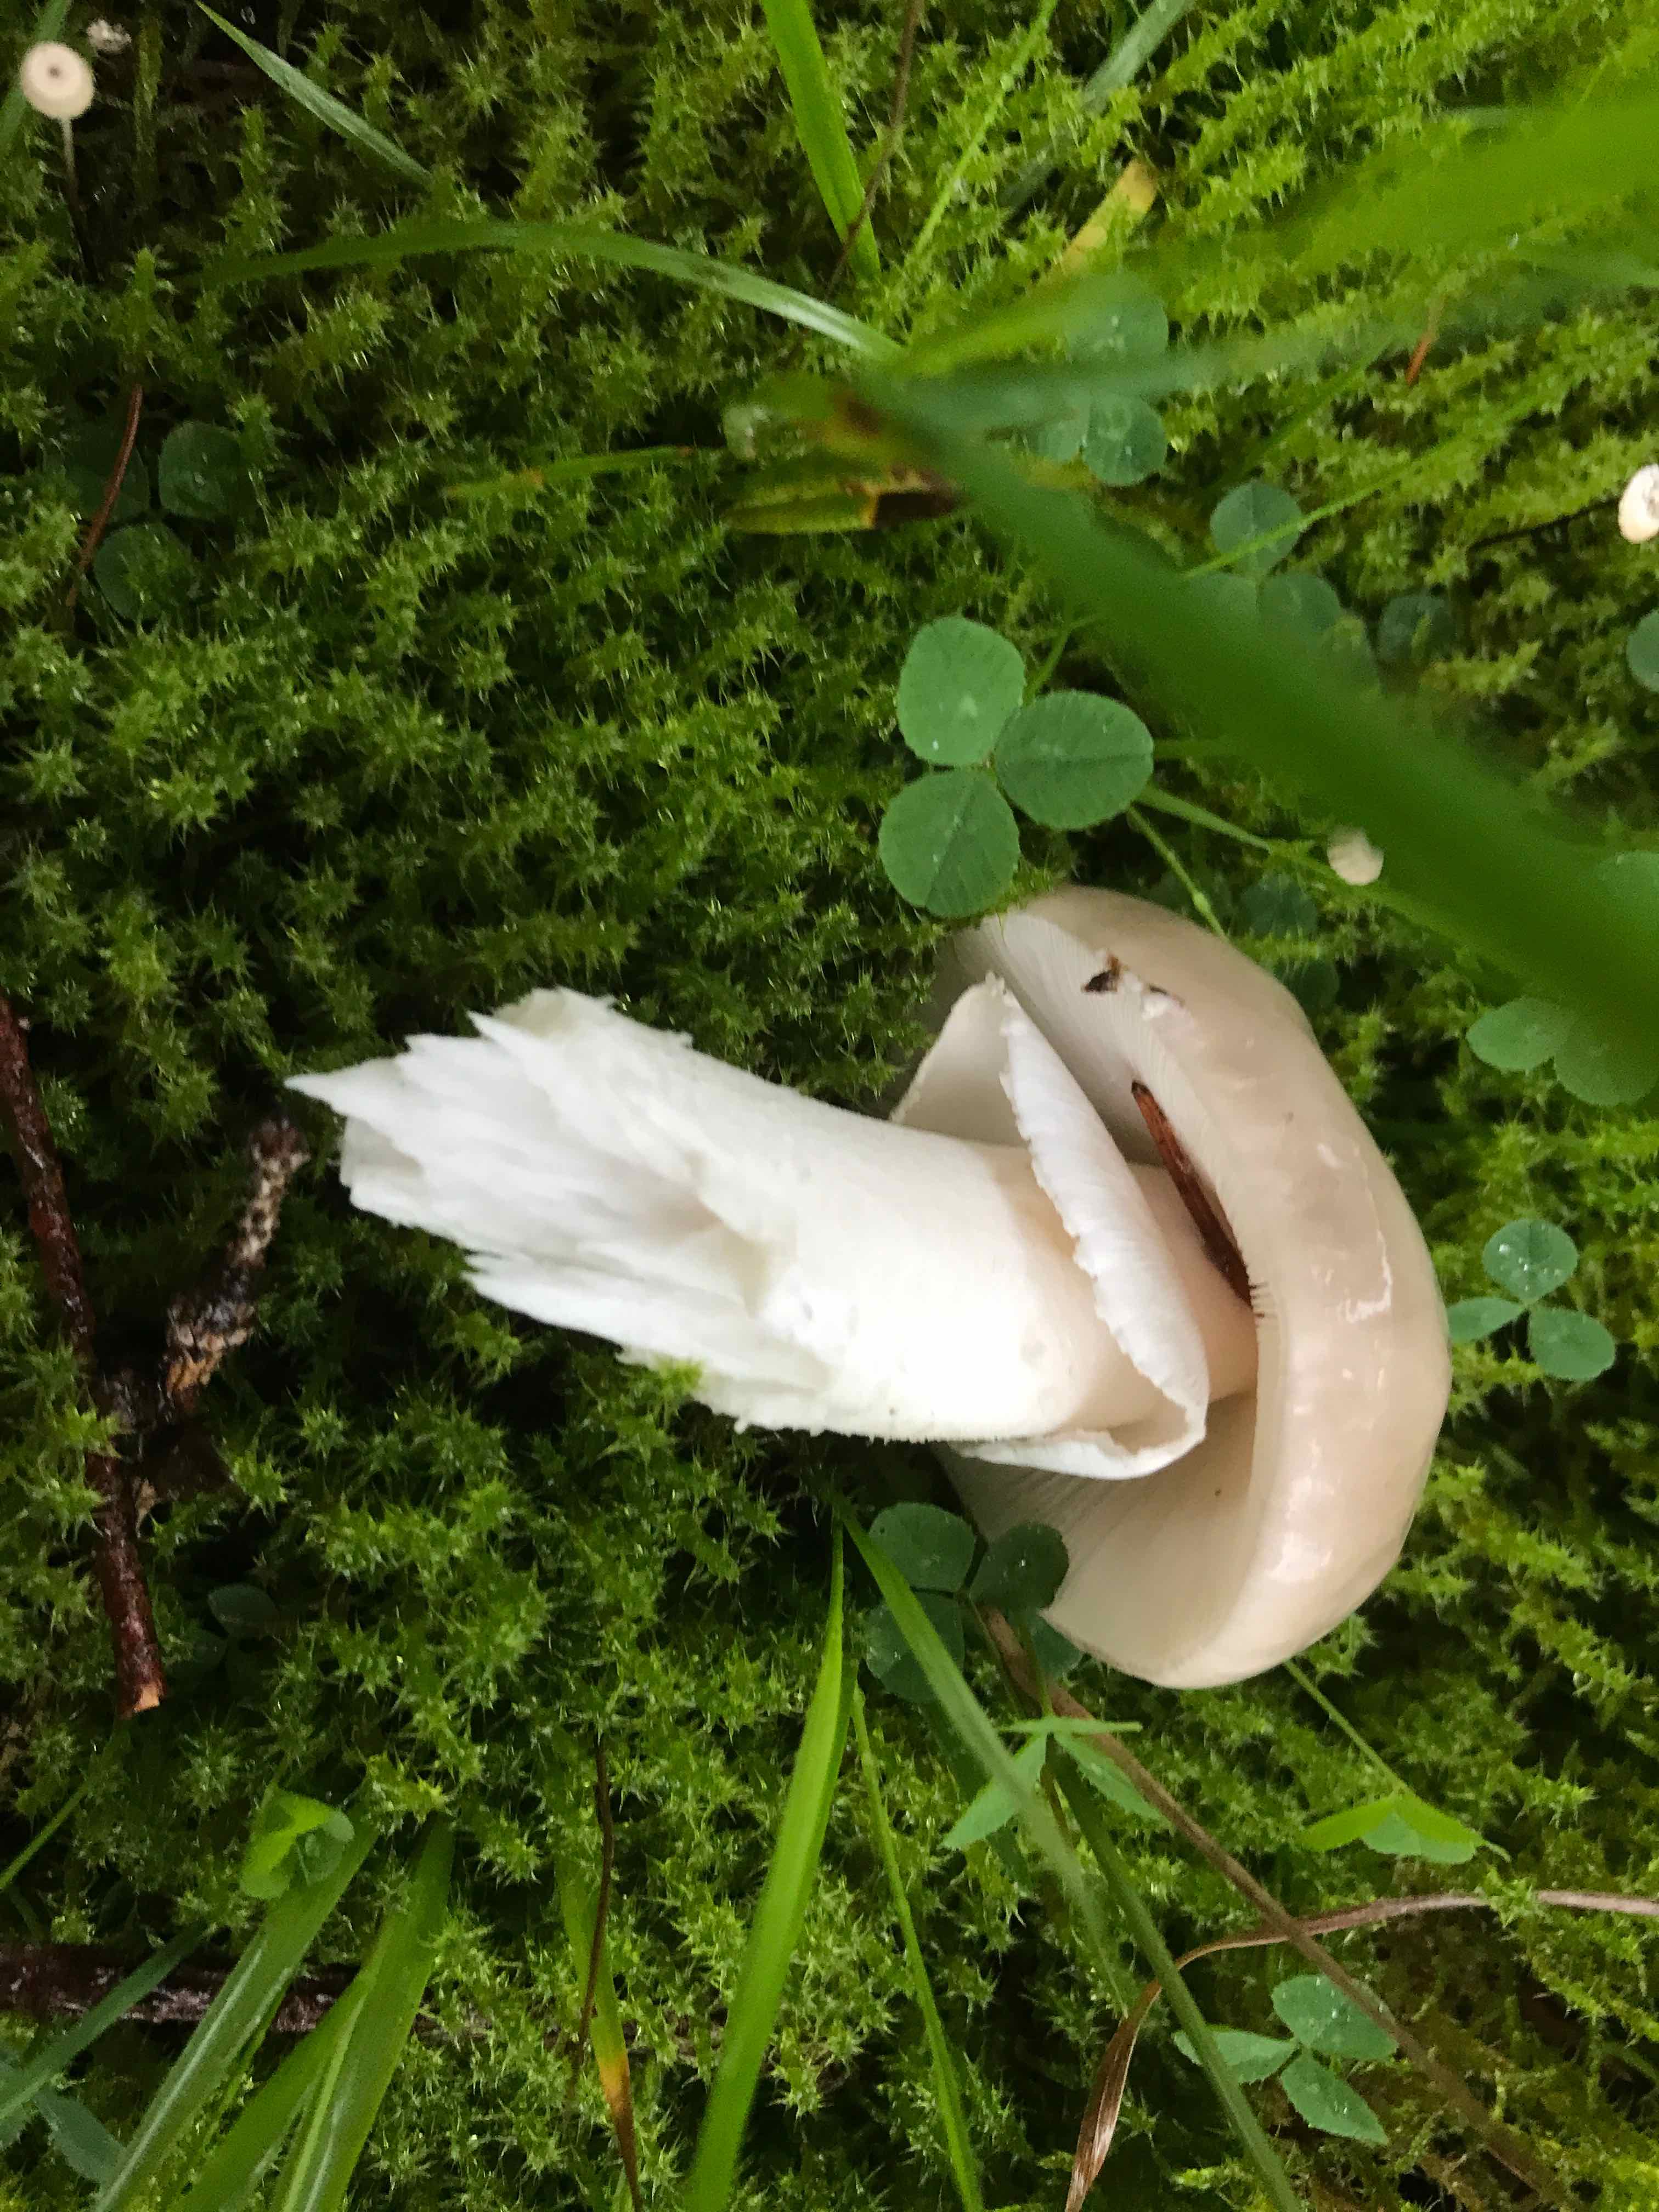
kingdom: Fungi
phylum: Basidiomycota
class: Agaricomycetes
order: Agaricales
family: Amanitaceae
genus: Amanita
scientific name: Amanita
